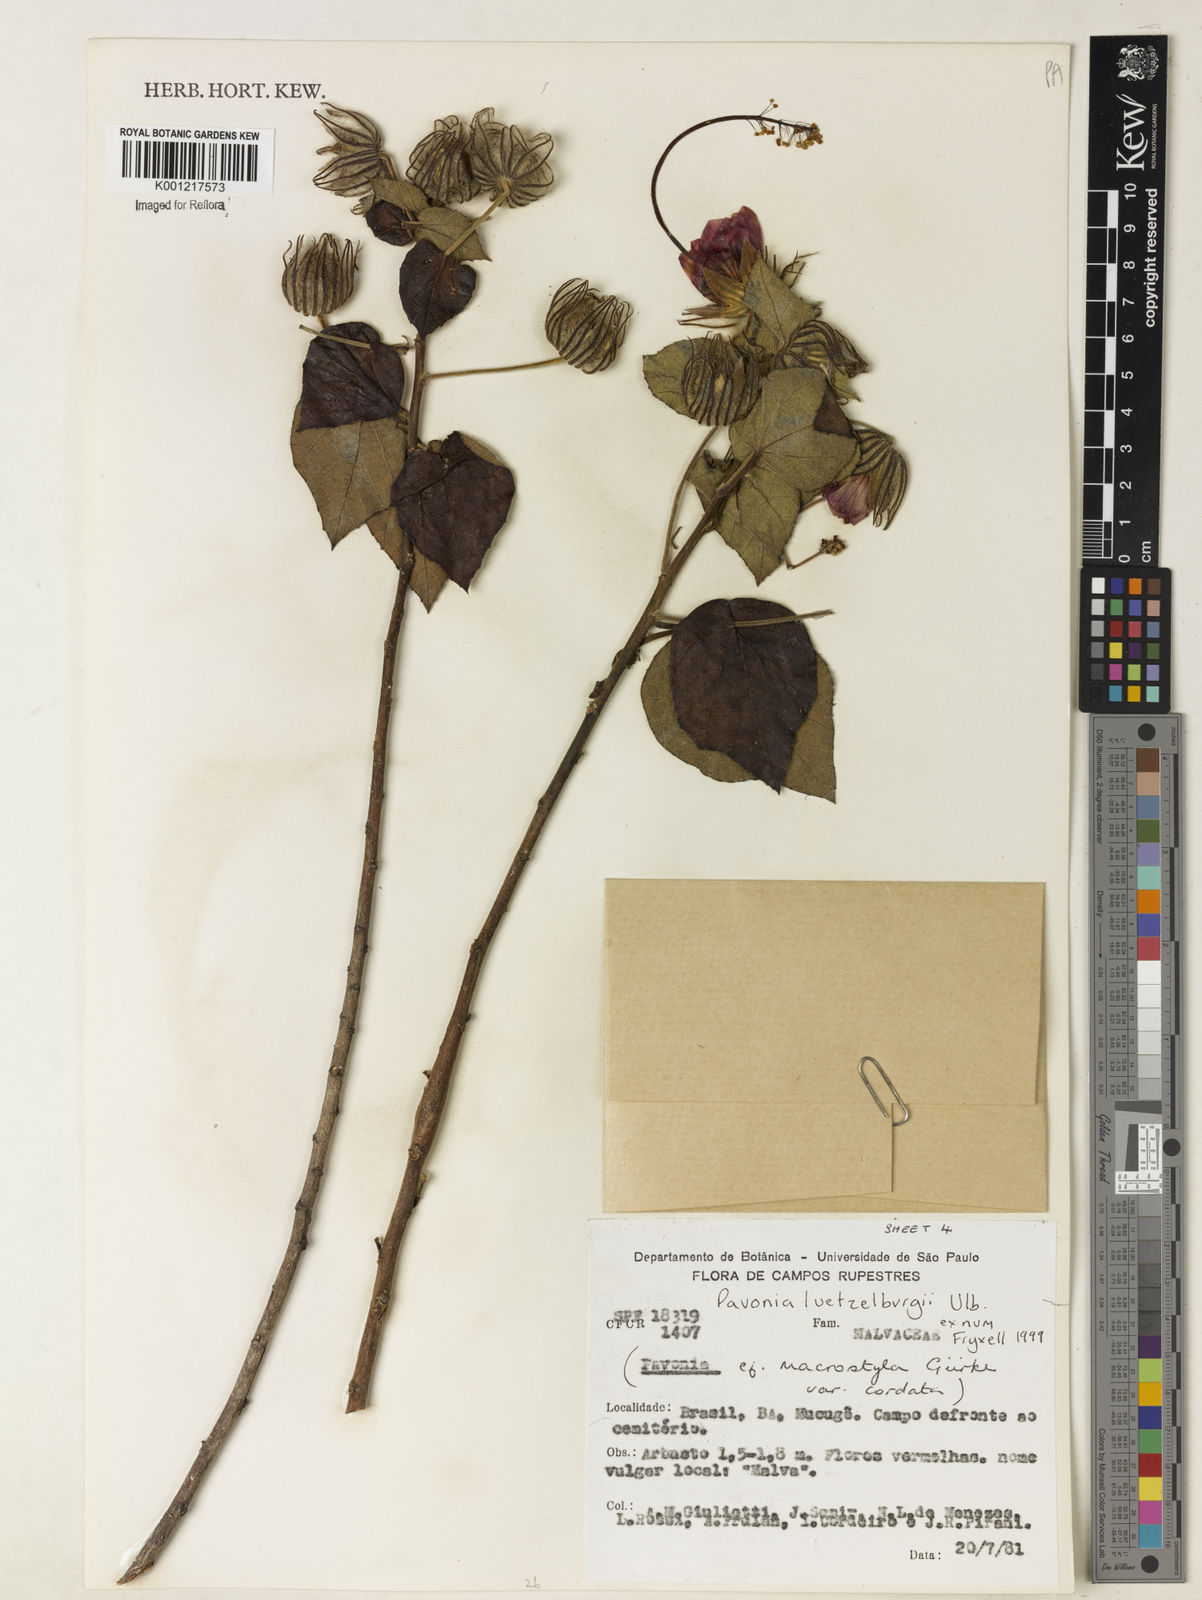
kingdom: Plantae
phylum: Tracheophyta
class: Magnoliopsida
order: Malvales
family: Malvaceae
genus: Pavonia
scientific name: Pavonia luetzelburgii
